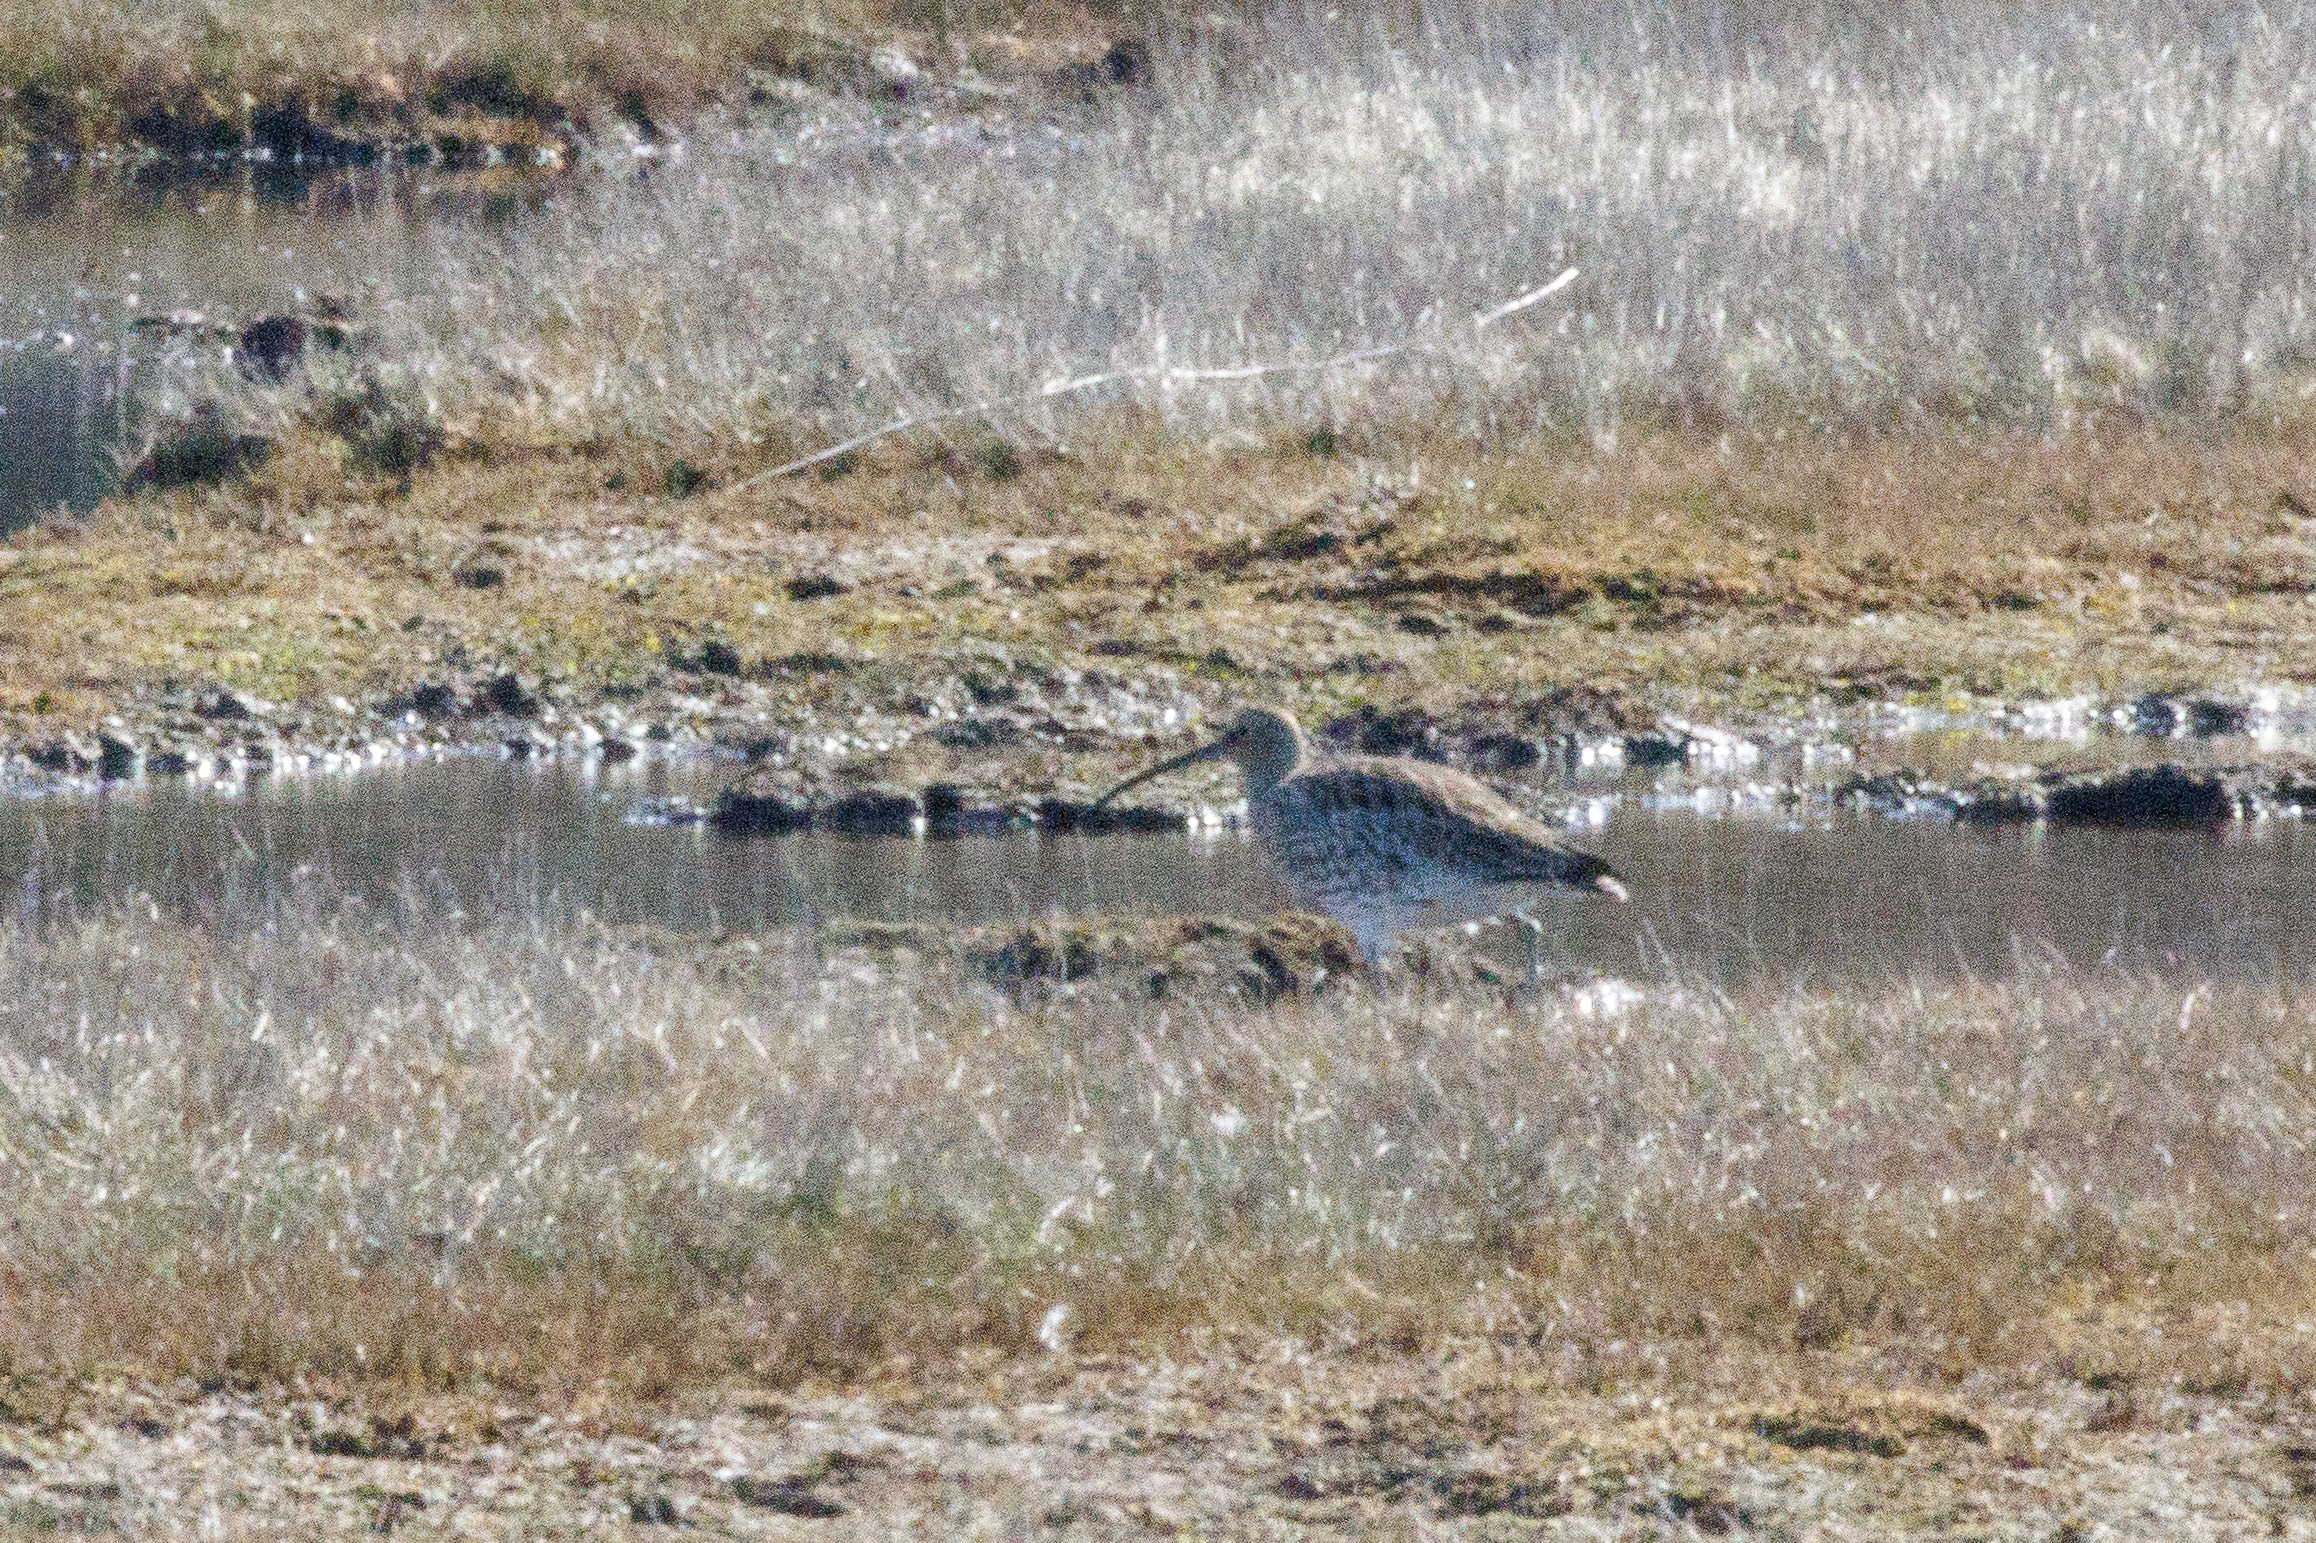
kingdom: Animalia
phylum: Chordata
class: Aves
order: Charadriiformes
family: Scolopacidae
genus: Numenius
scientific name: Numenius arquata
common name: Storspove
